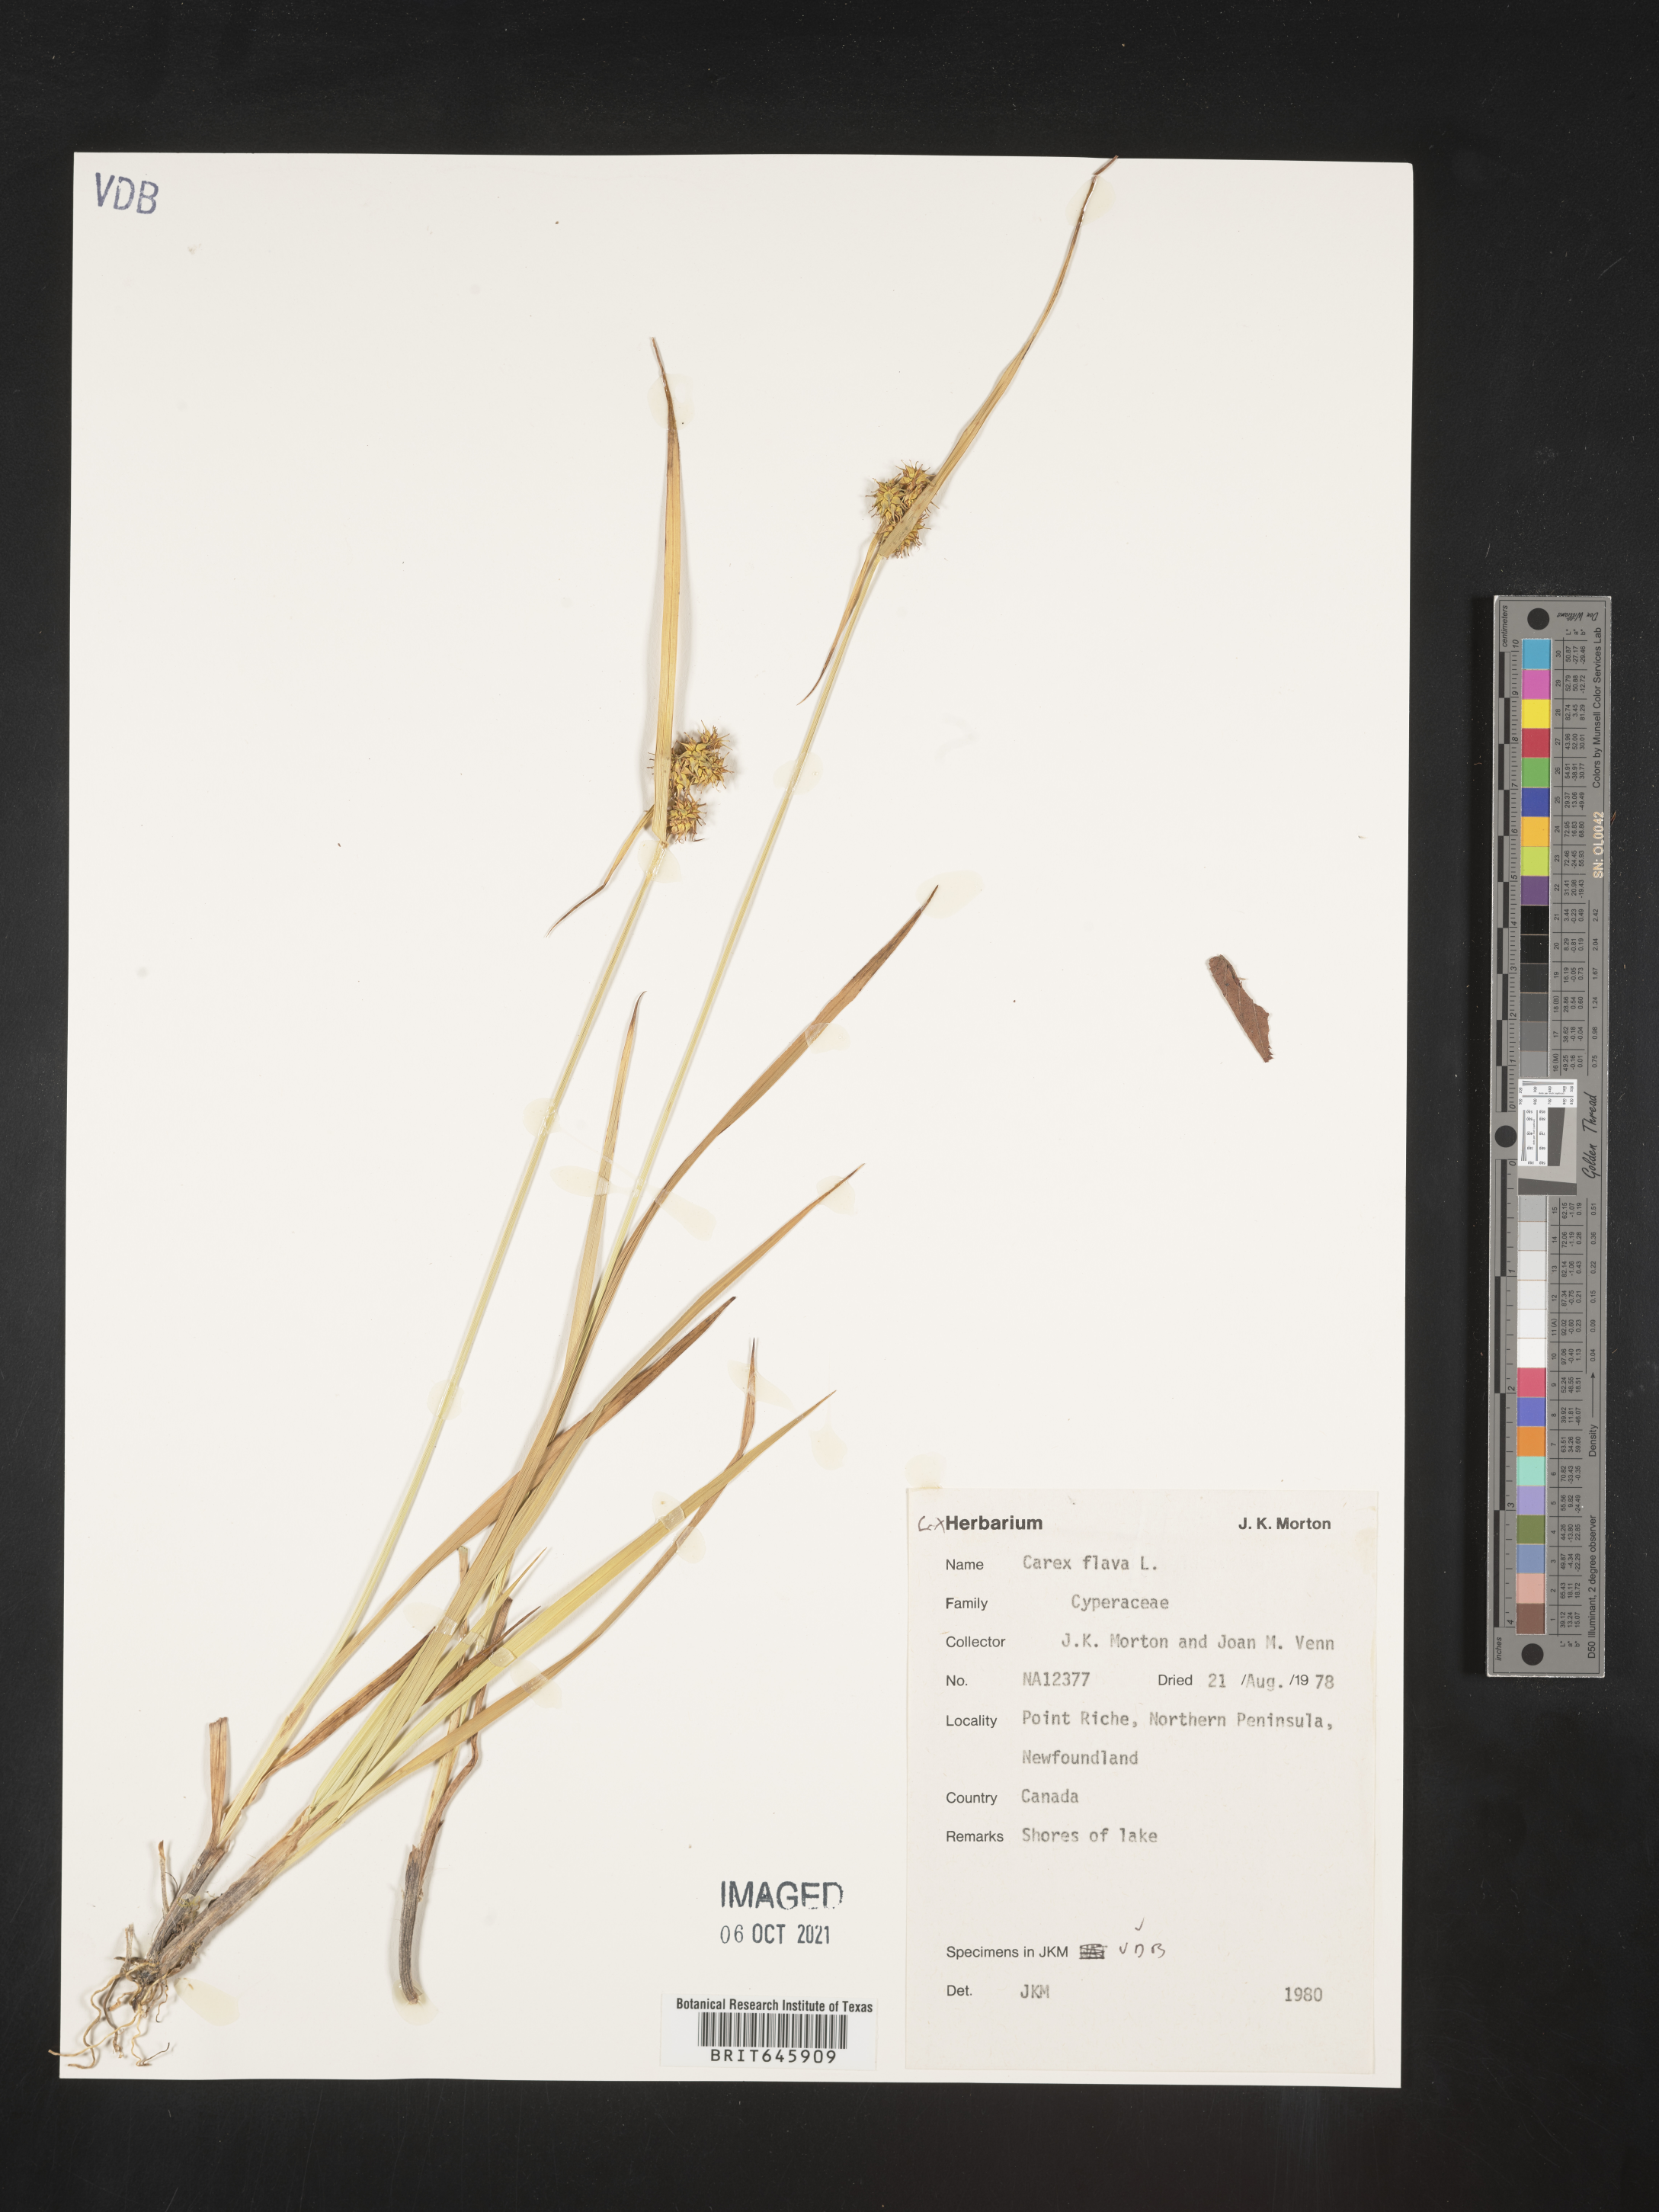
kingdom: Plantae
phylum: Tracheophyta
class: Liliopsida
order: Poales
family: Cyperaceae
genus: Carex
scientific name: Carex flava
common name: Large yellow-sedge
